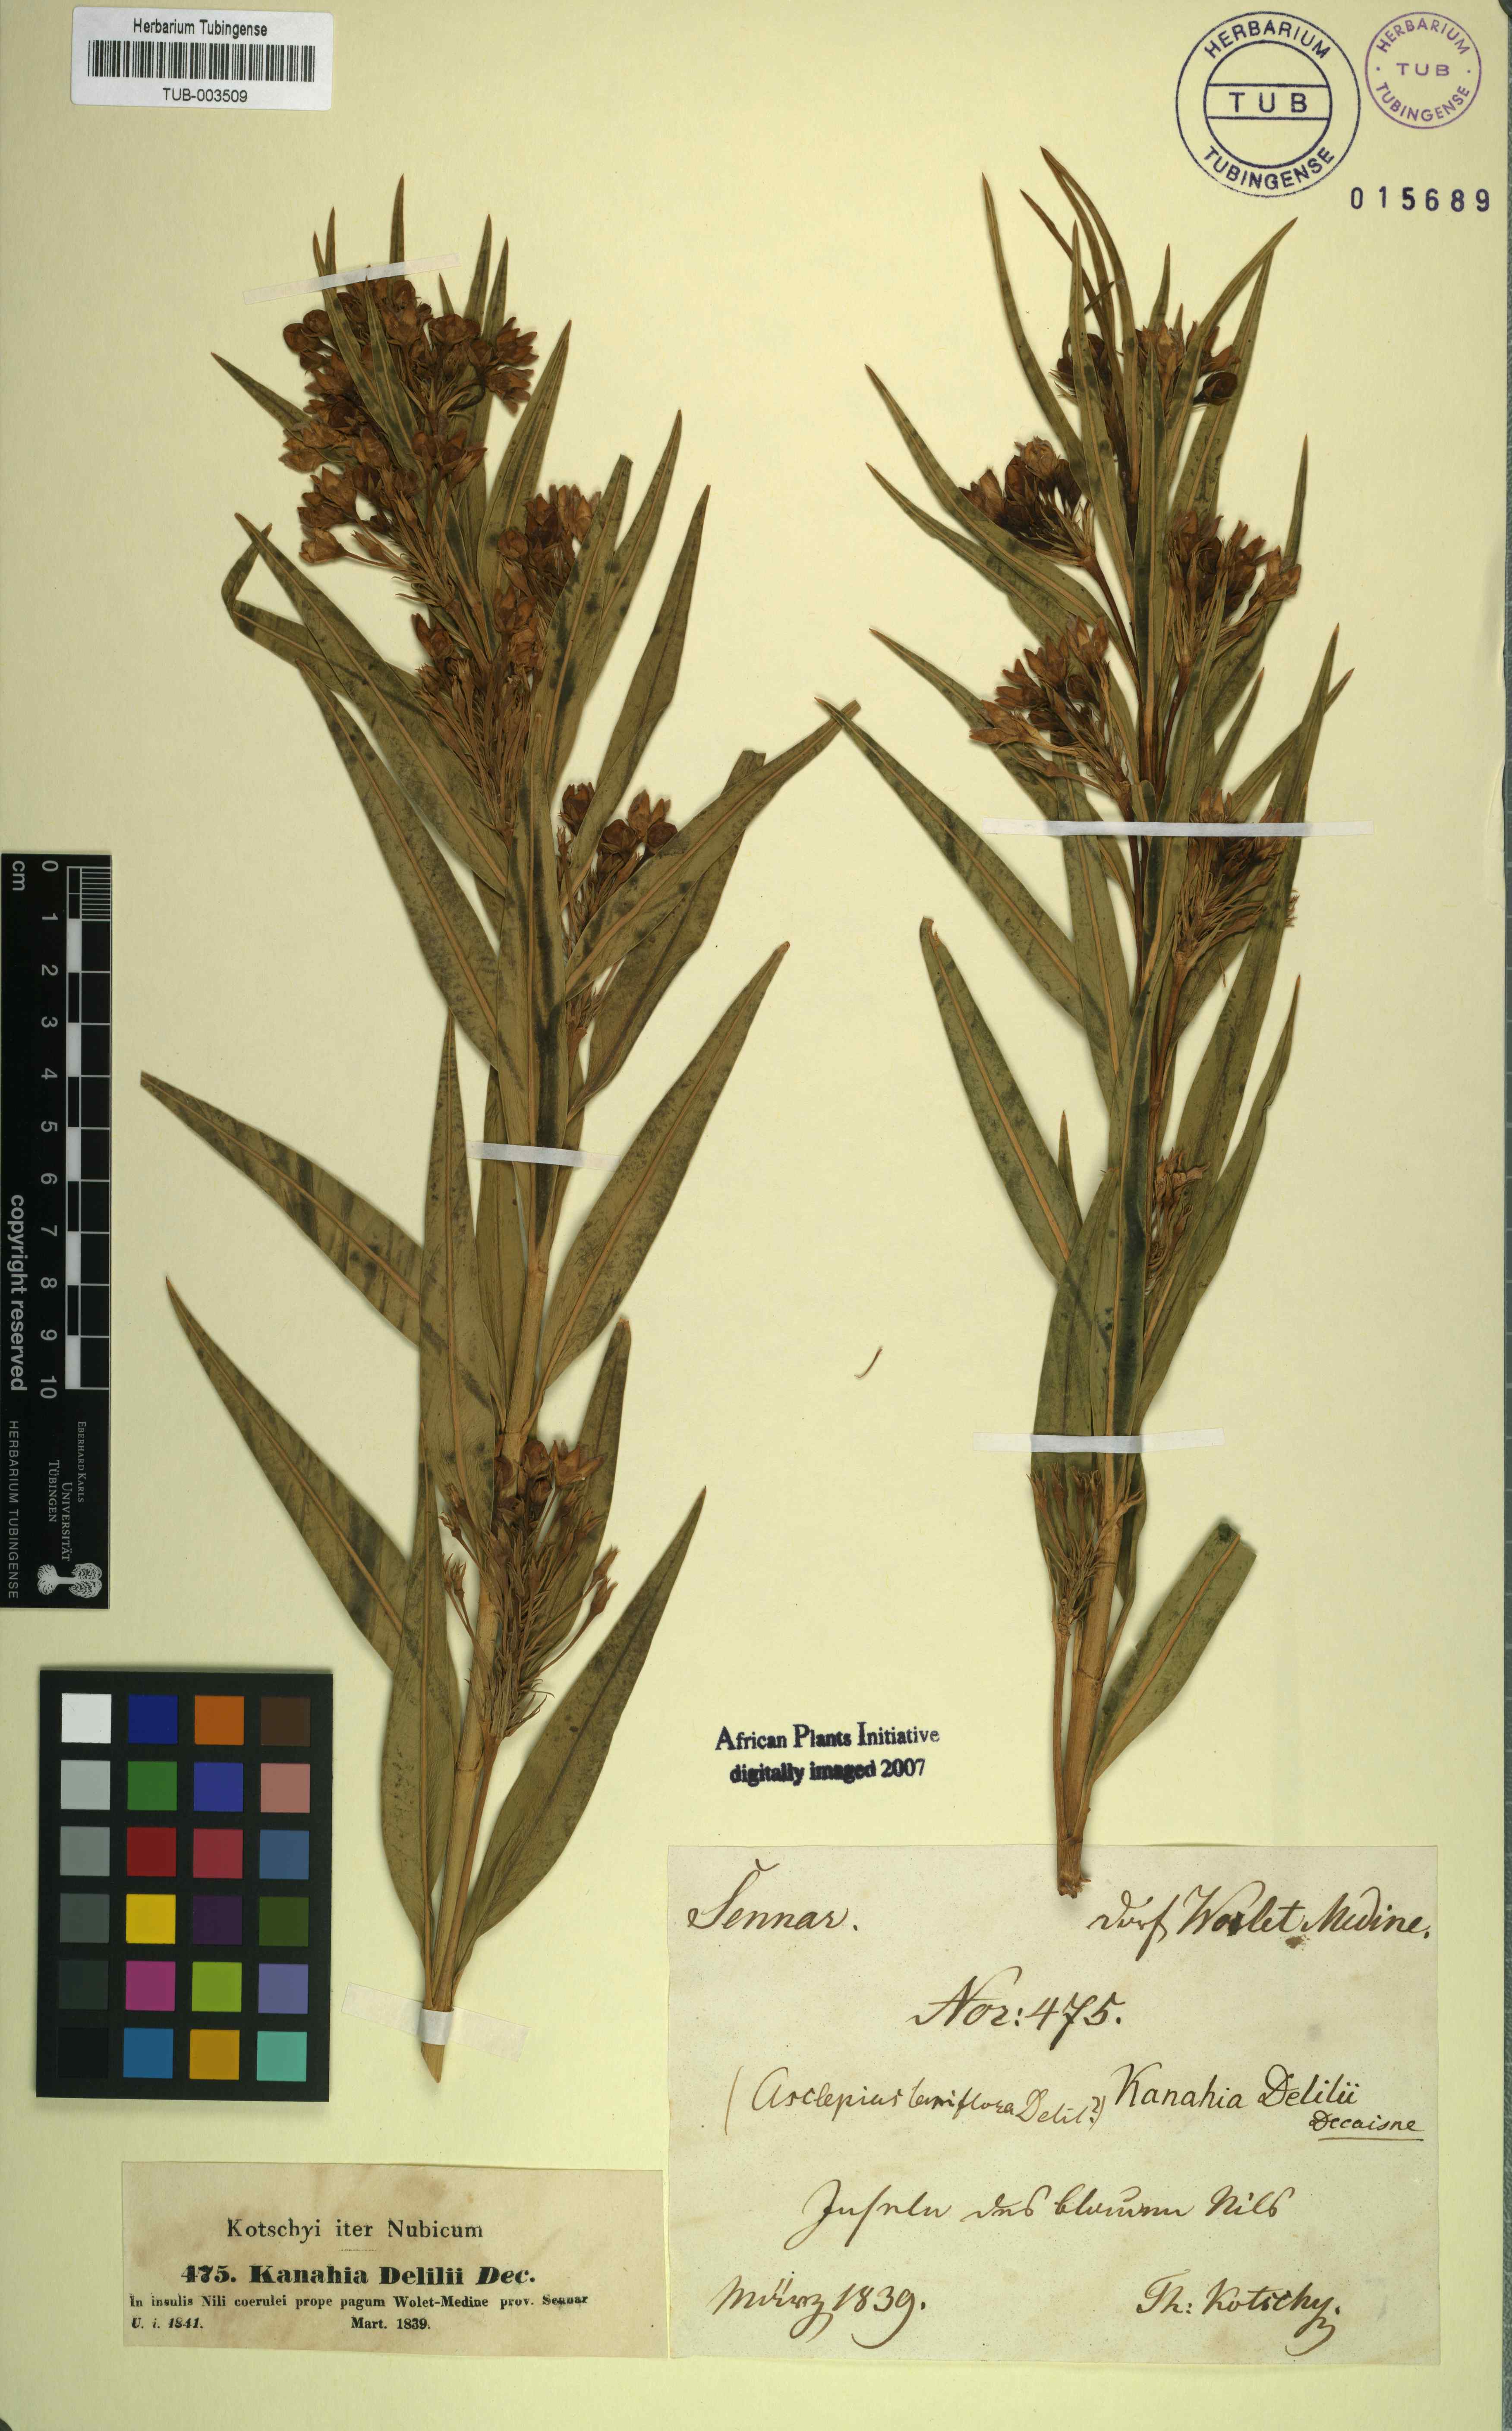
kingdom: Plantae
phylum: Tracheophyta
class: Magnoliopsida
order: Gentianales
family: Apocynaceae
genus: Kanahia
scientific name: Kanahia laniflora
